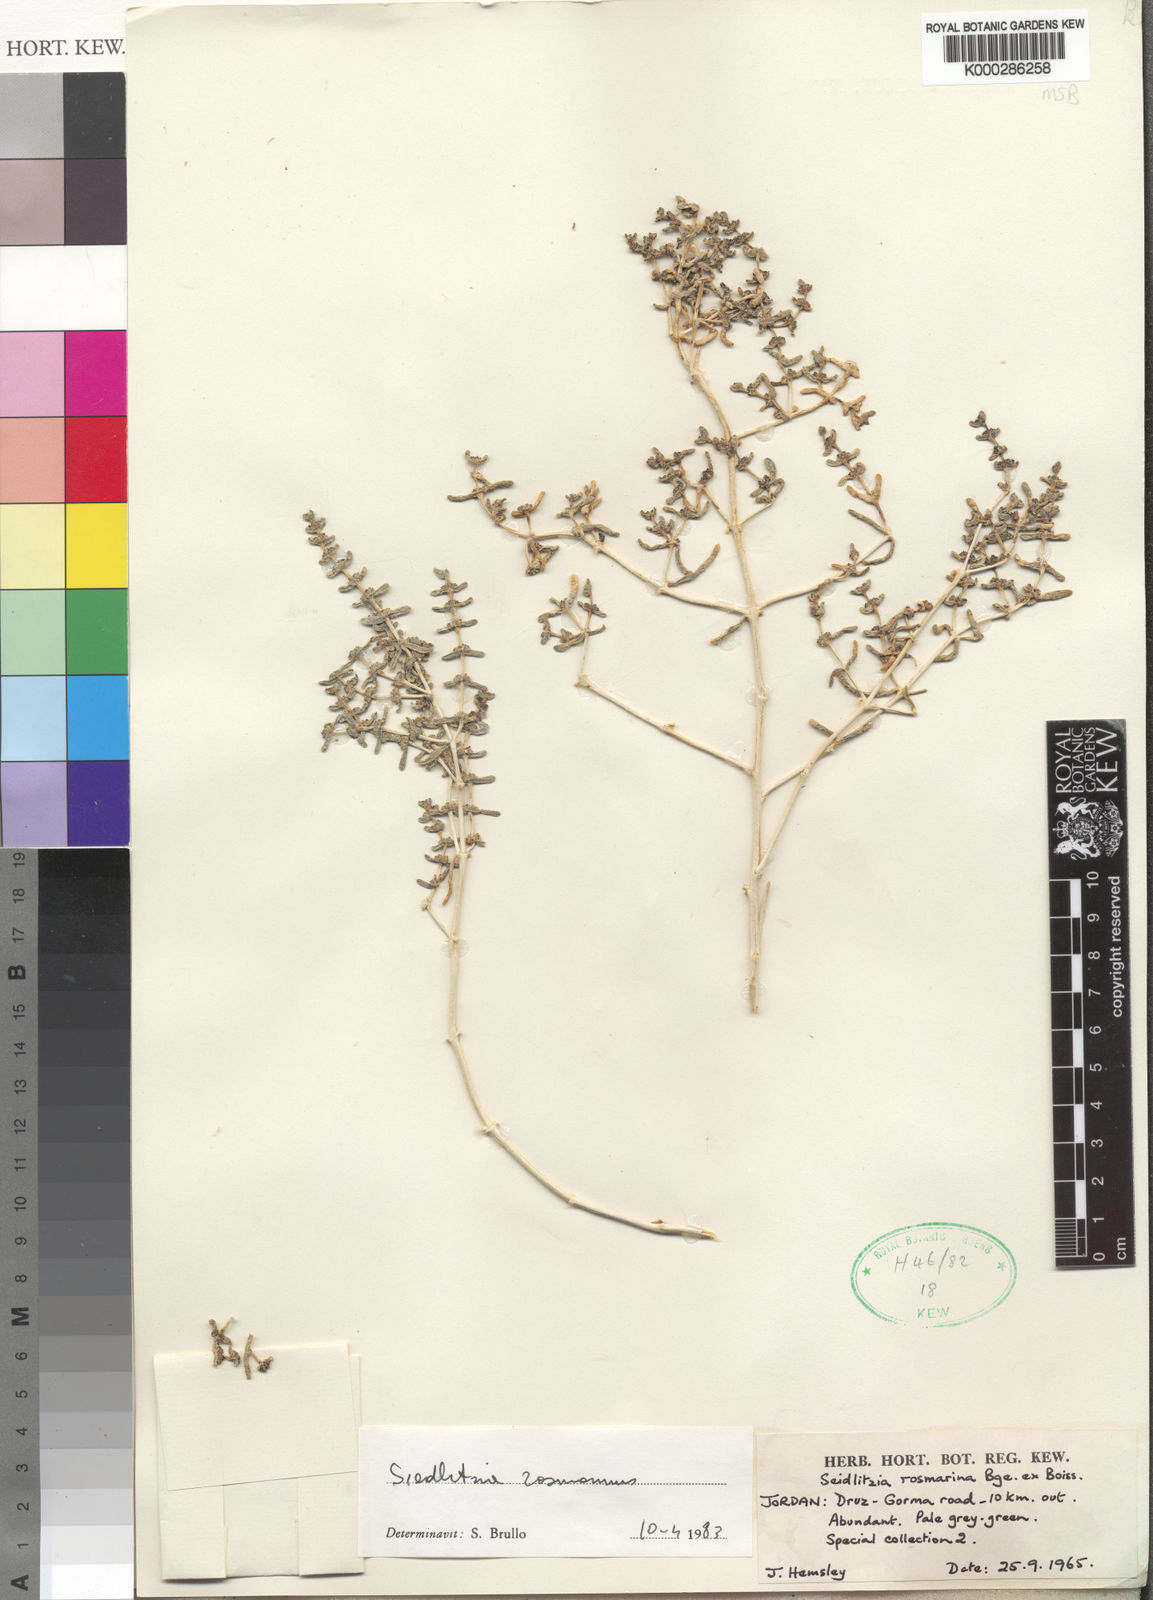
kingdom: Plantae
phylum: Tracheophyta
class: Magnoliopsida
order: Caryophyllales
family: Amaranthaceae
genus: Soda
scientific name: Soda rosmarinus
